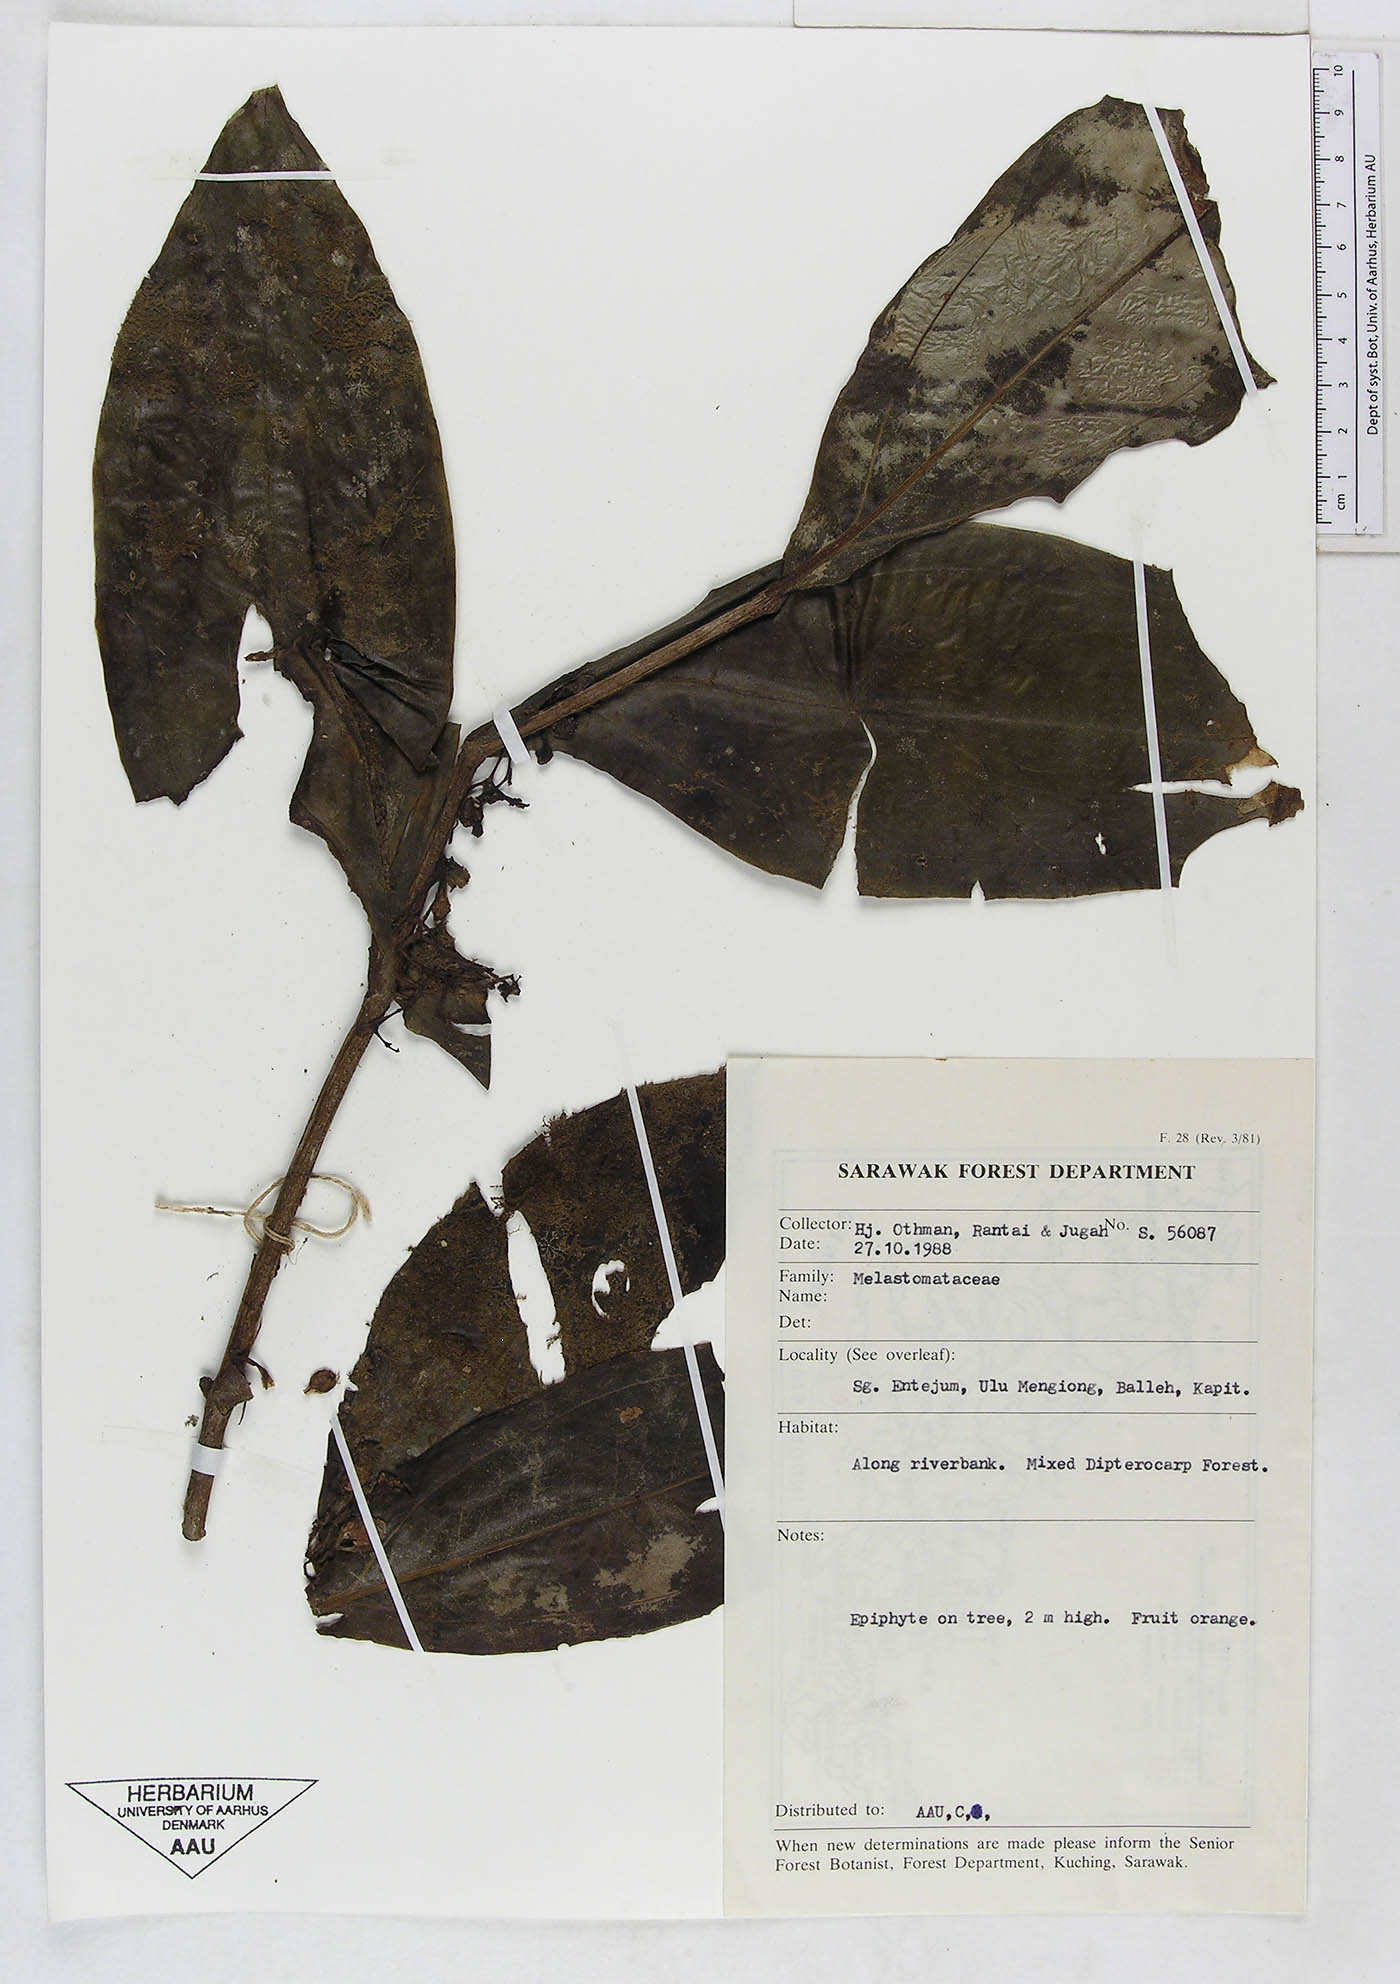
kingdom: Plantae
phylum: Tracheophyta
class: Magnoliopsida
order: Myrtales
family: Melastomataceae
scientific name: Melastomataceae
